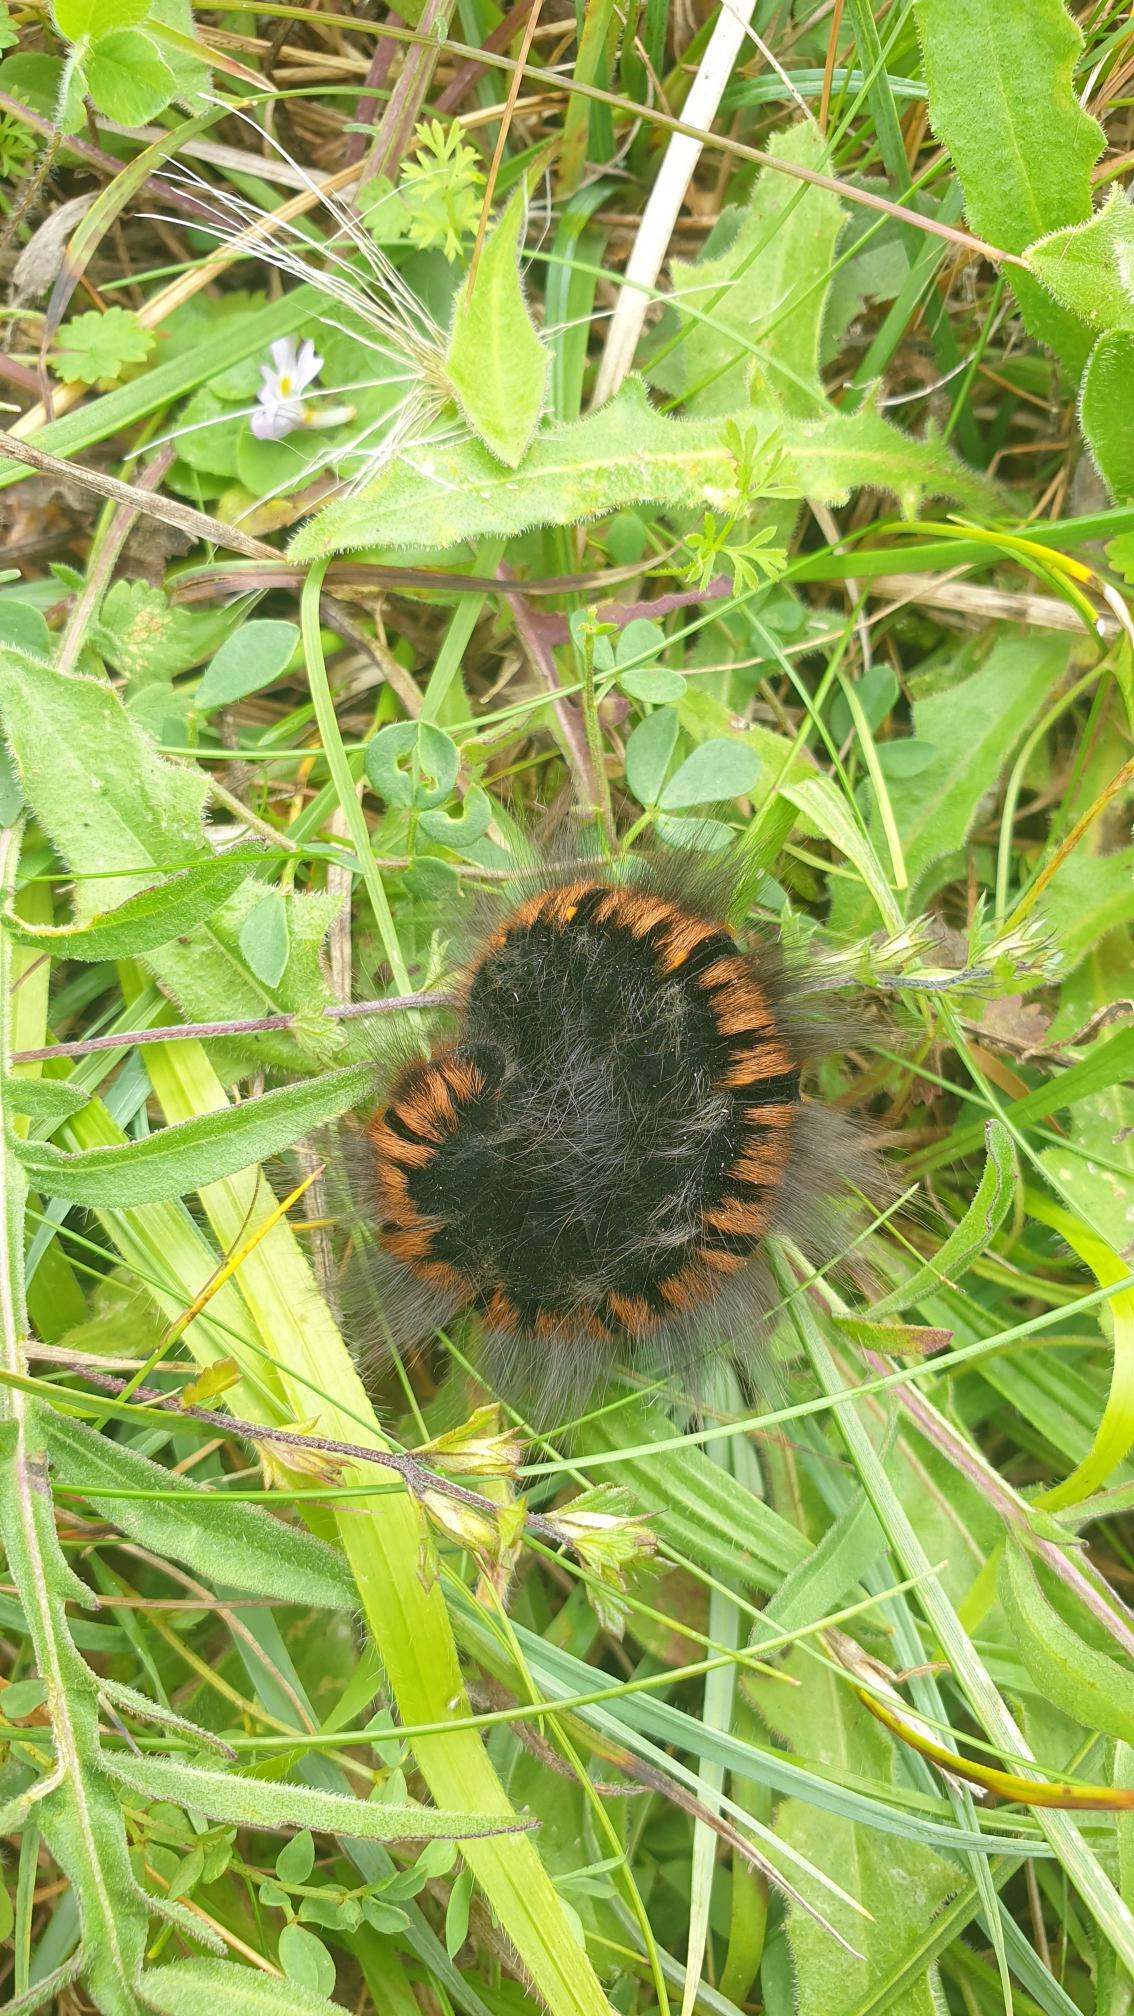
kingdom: Animalia
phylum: Arthropoda
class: Insecta
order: Lepidoptera
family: Lasiocampidae
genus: Macrothylacia
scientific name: Macrothylacia rubi
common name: Brombærspinder
